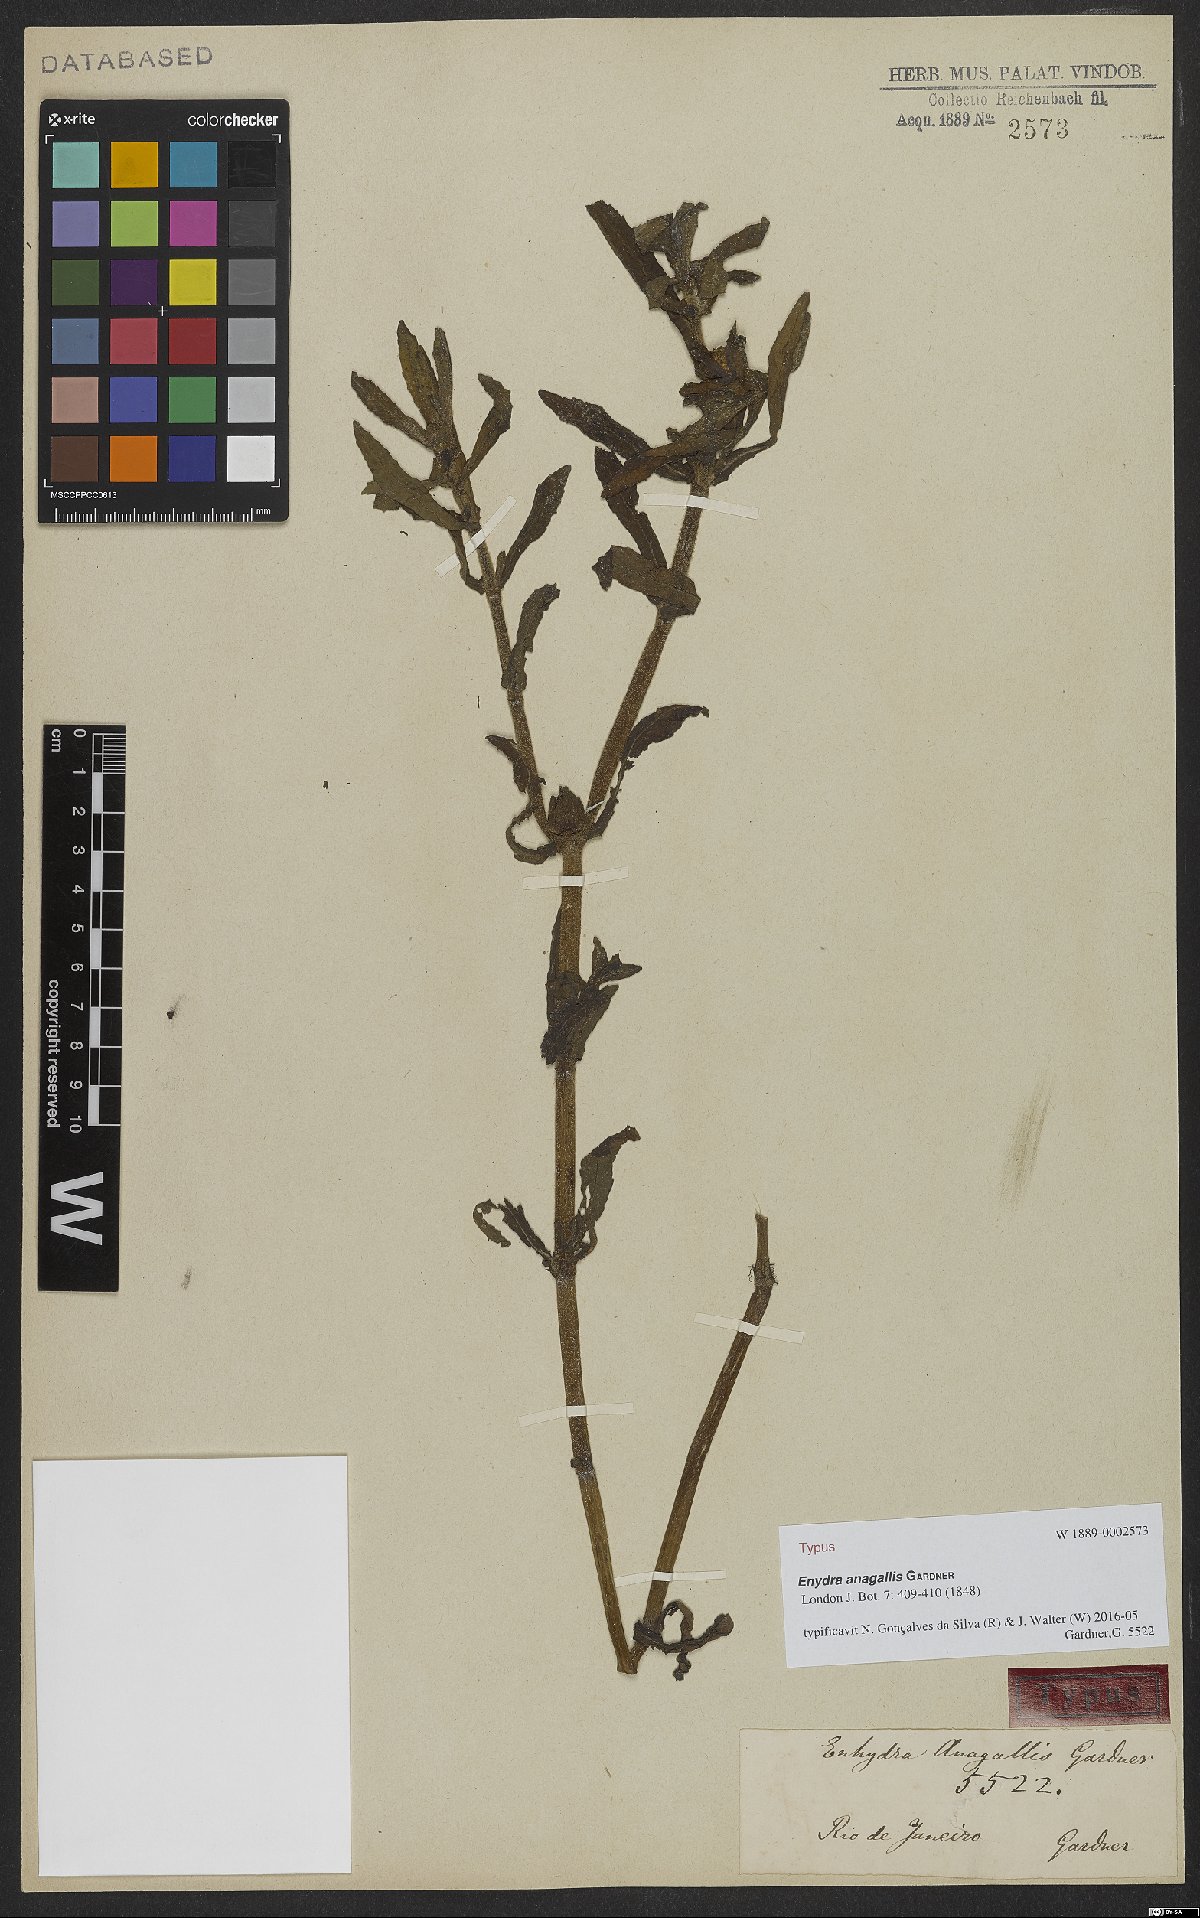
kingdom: Plantae
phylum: Tracheophyta
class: Magnoliopsida
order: Asterales
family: Asteraceae
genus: Enydra
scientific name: Enydra fluctuans
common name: Buffalo spinach
